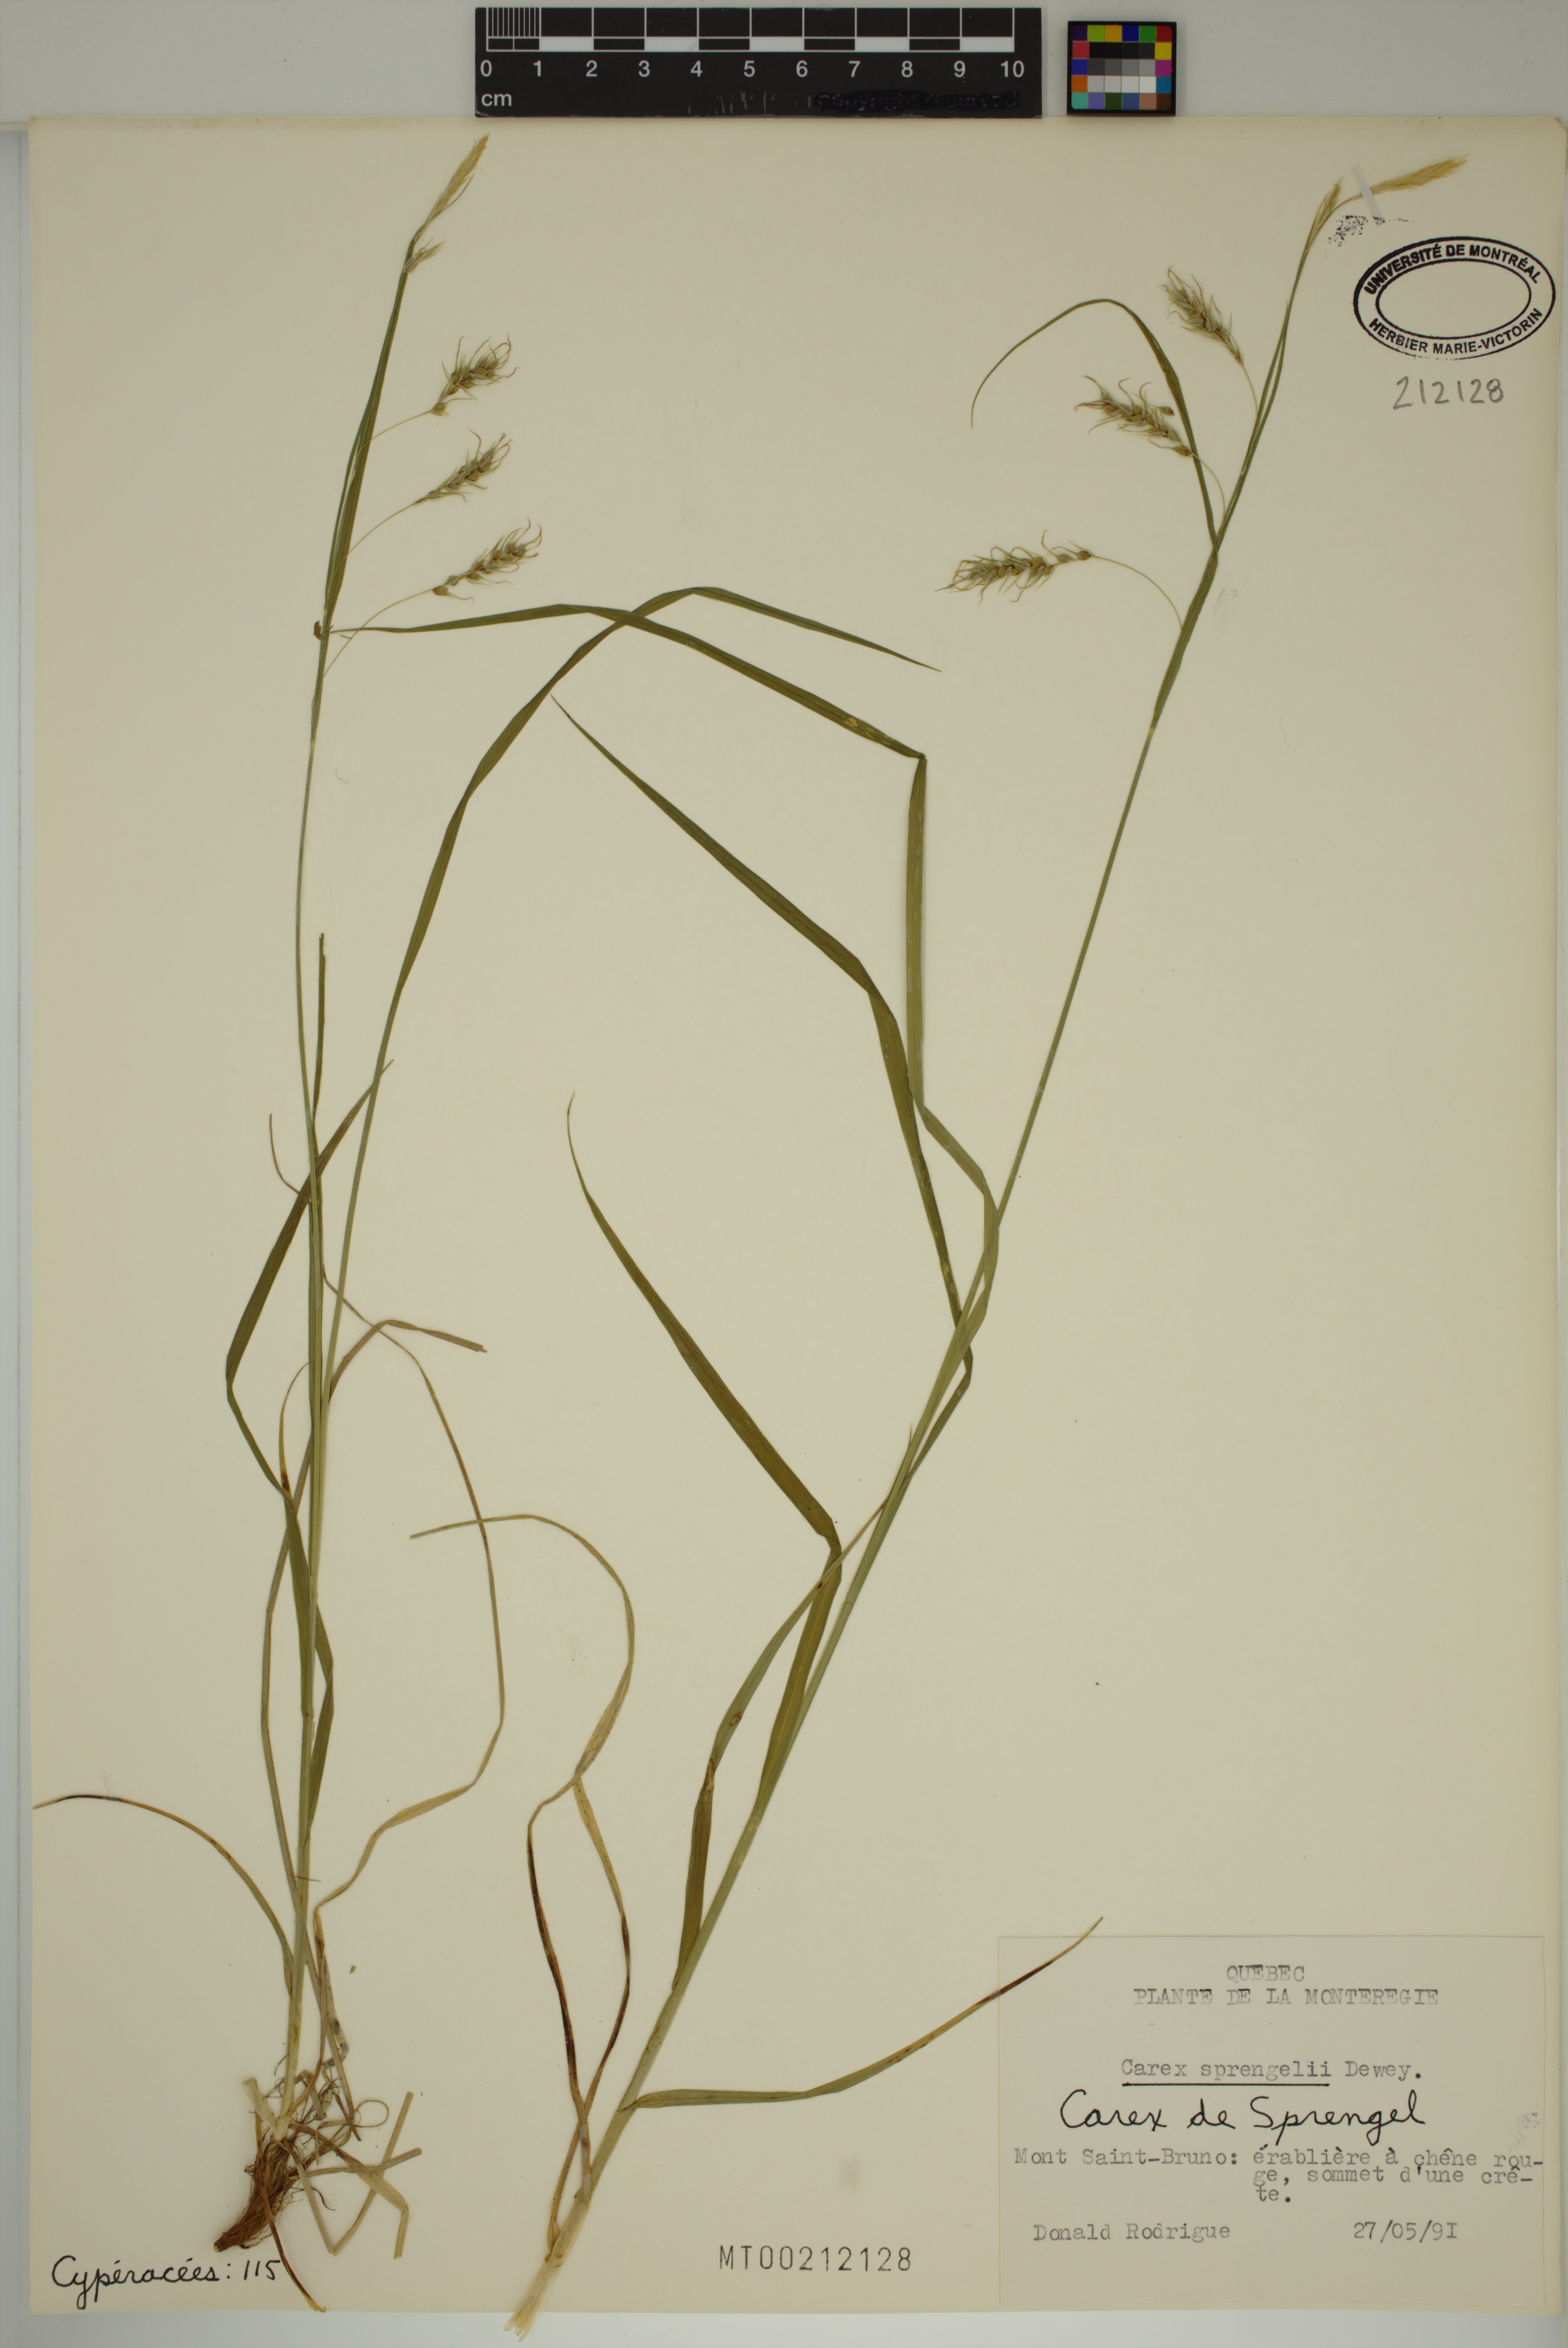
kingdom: Plantae
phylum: Tracheophyta
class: Liliopsida
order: Poales
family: Cyperaceae
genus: Carex
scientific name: Carex sprengelii
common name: Long-beaked sedge
